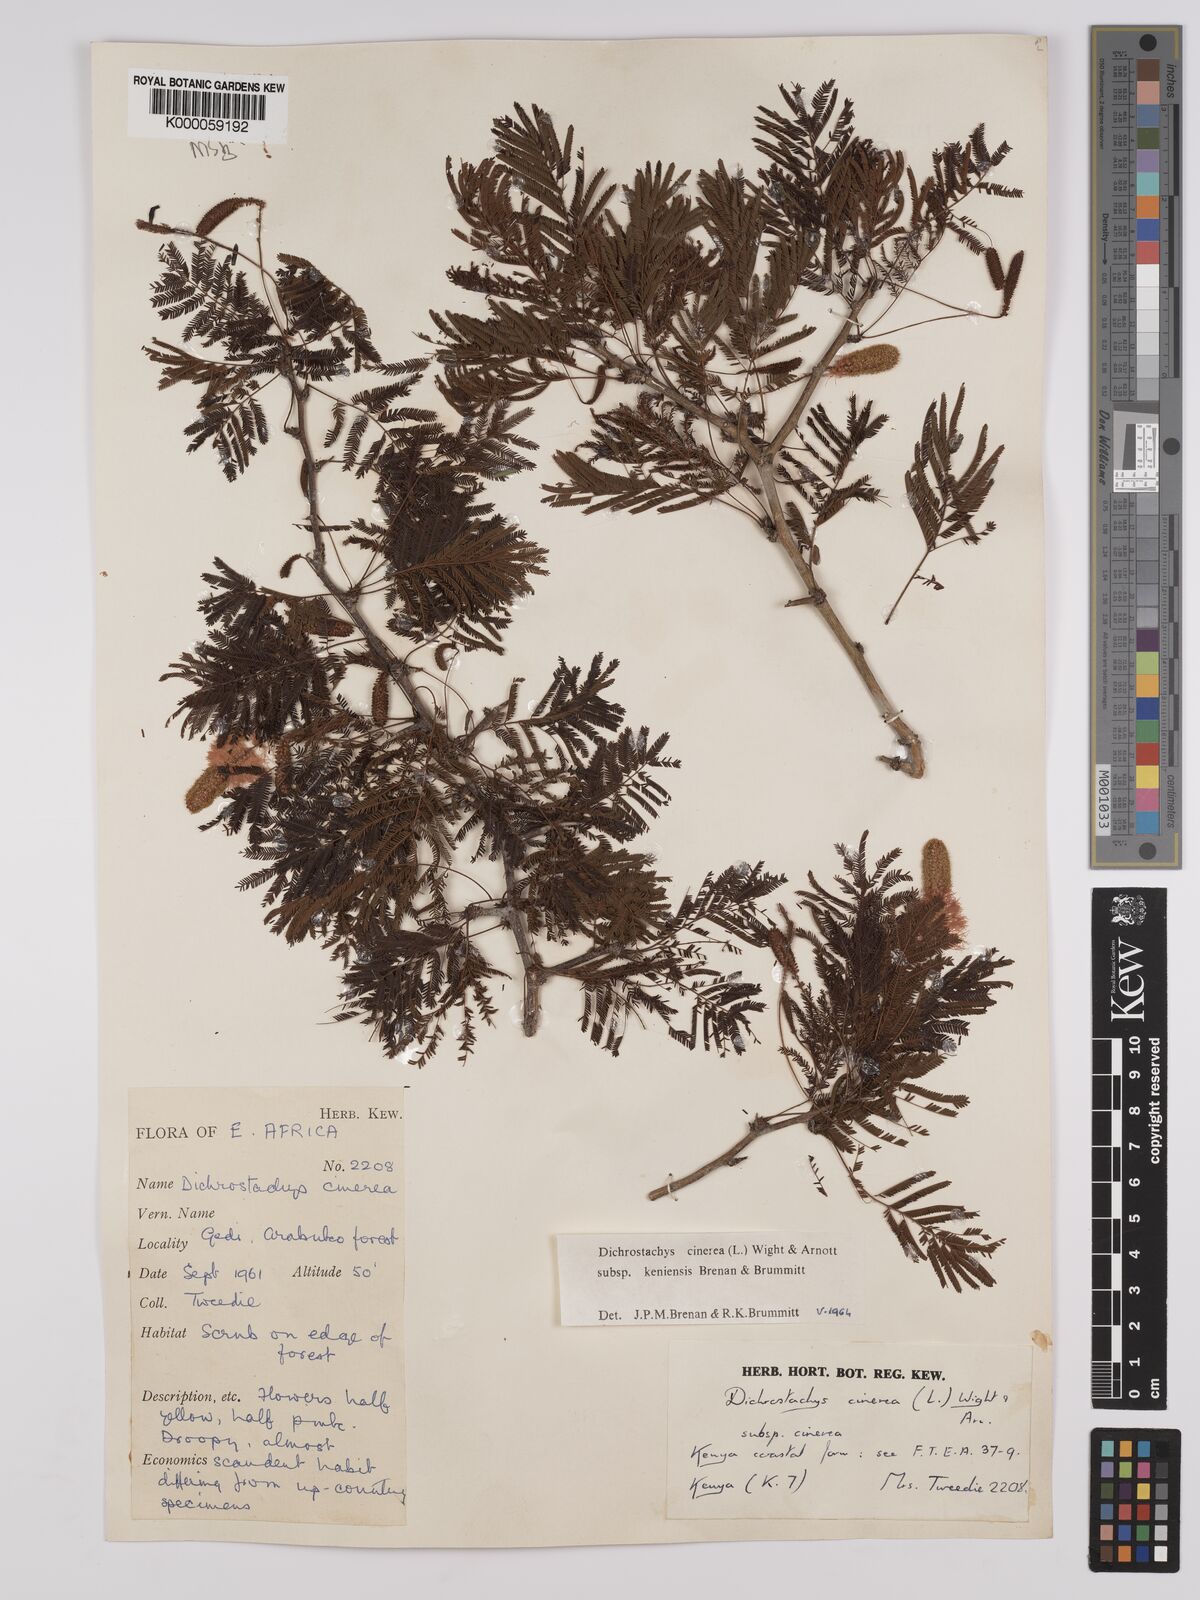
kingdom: Plantae
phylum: Tracheophyta
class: Magnoliopsida
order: Fabales
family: Fabaceae
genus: Dichrostachys
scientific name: Dichrostachys cinerea
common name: Sicklebush
